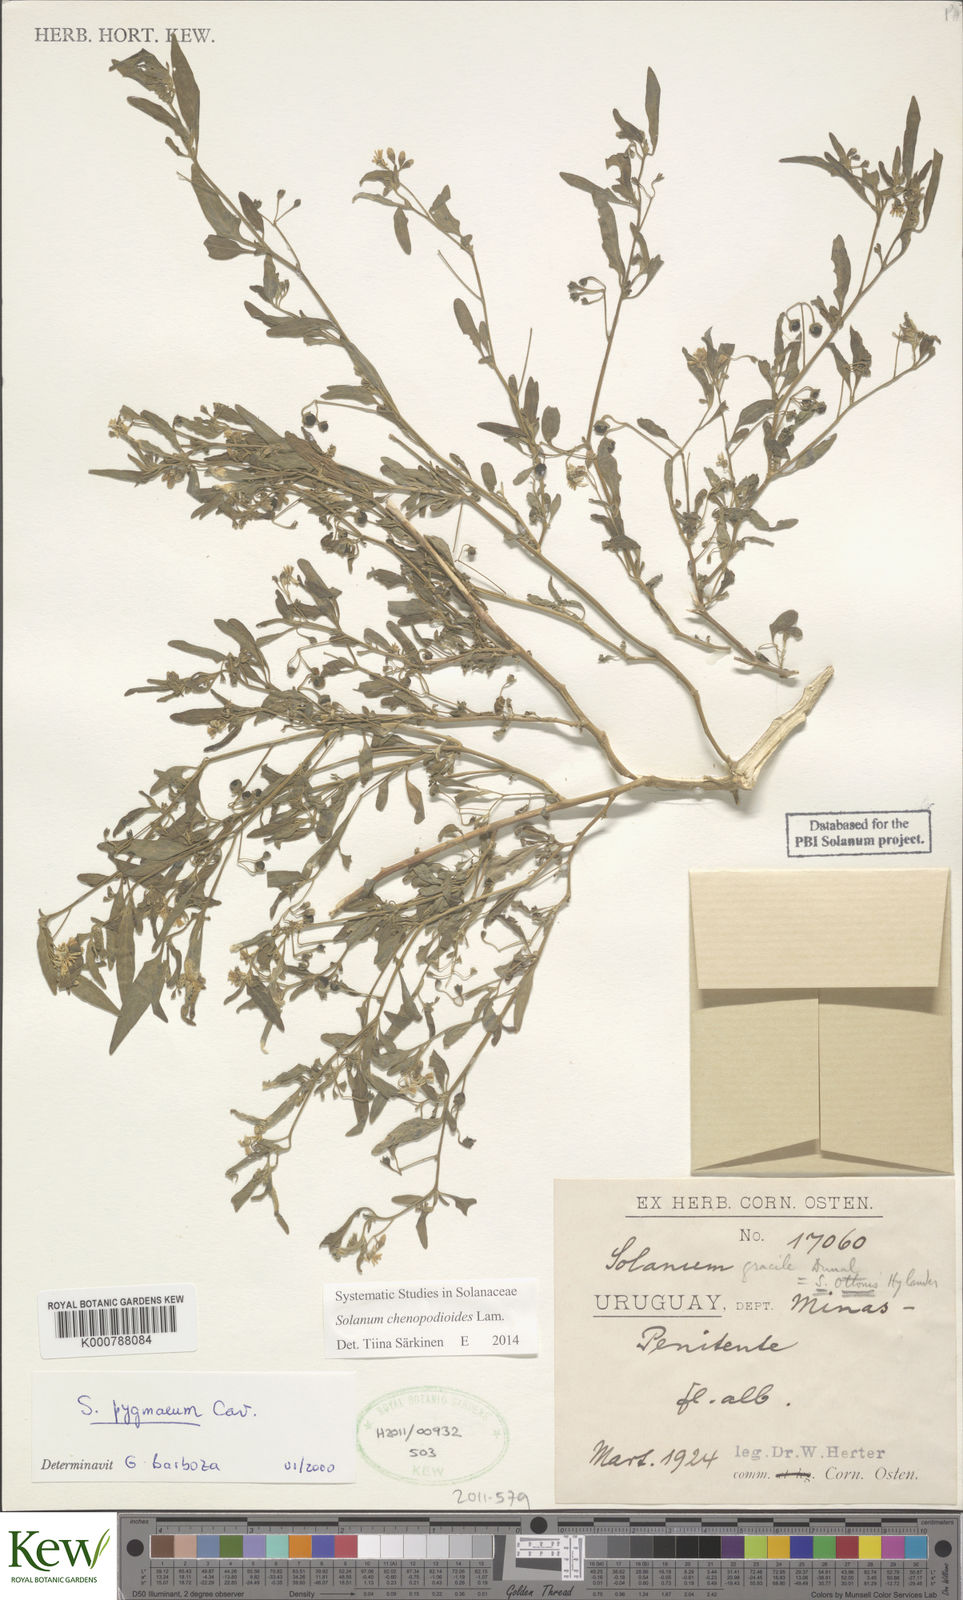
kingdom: Plantae
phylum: Tracheophyta
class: Magnoliopsida
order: Solanales
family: Solanaceae
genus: Solanum
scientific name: Solanum chenopodioides
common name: Tall nightshade
